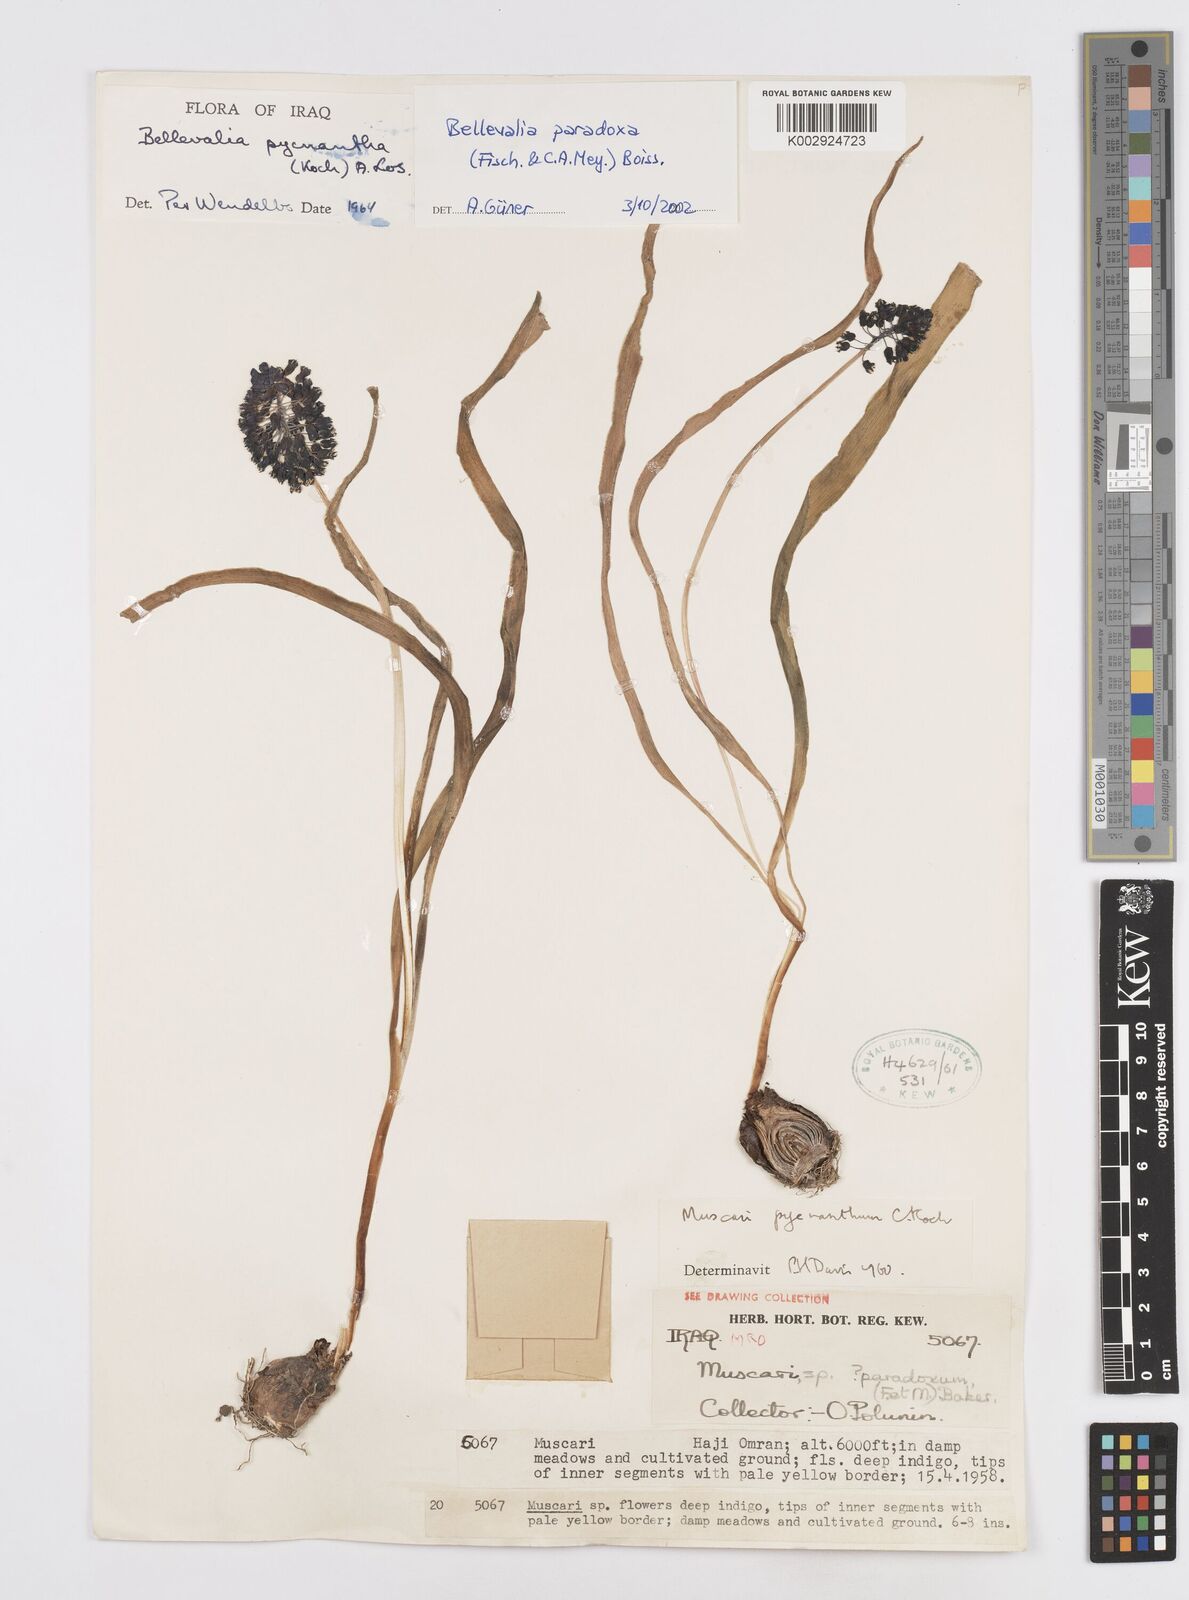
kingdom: Plantae
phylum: Tracheophyta
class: Liliopsida
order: Asparagales
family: Asparagaceae
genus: Bellevalia
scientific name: Bellevalia paradoxa
